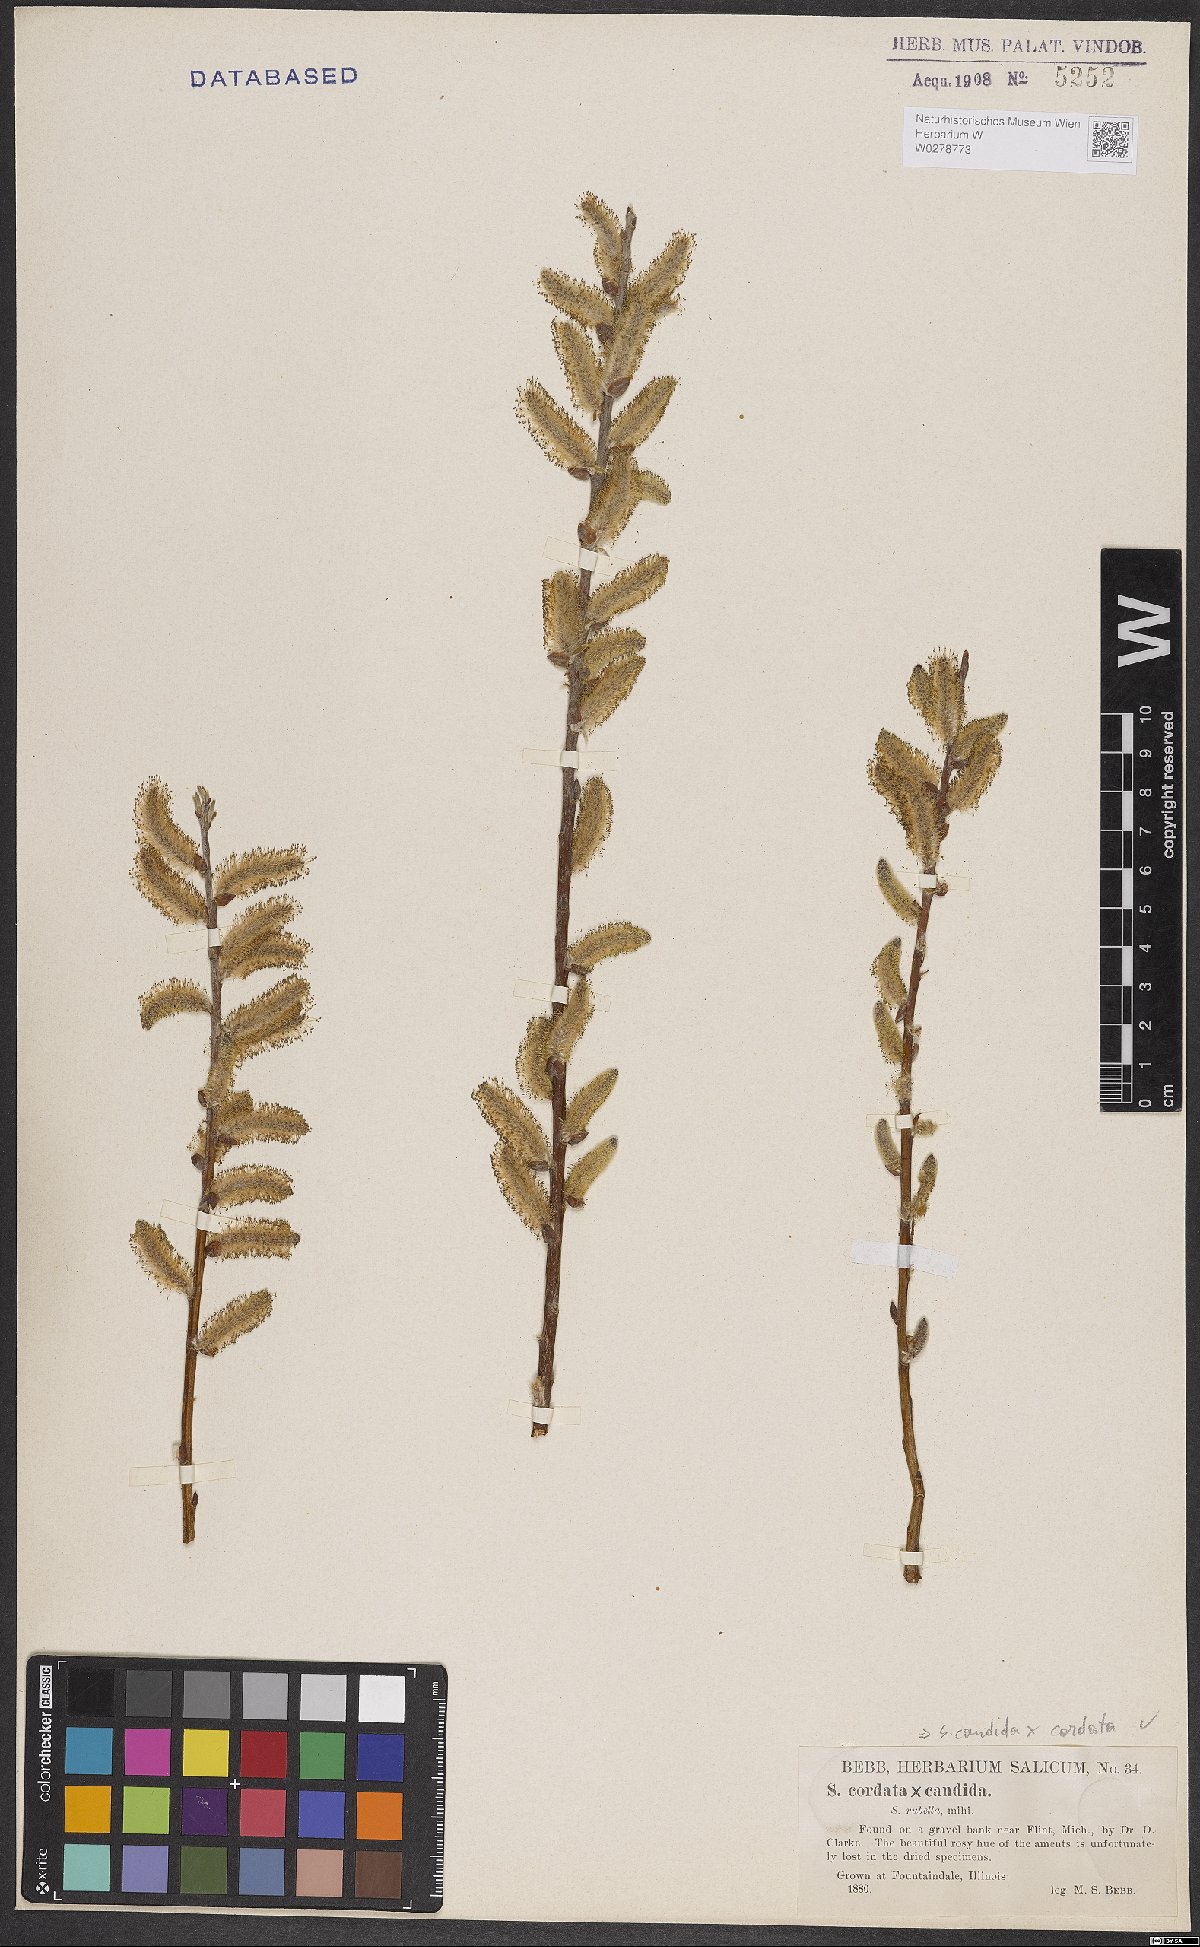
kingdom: Plantae
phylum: Tracheophyta
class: Magnoliopsida
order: Malpighiales
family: Salicaceae
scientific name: Salicaceae
